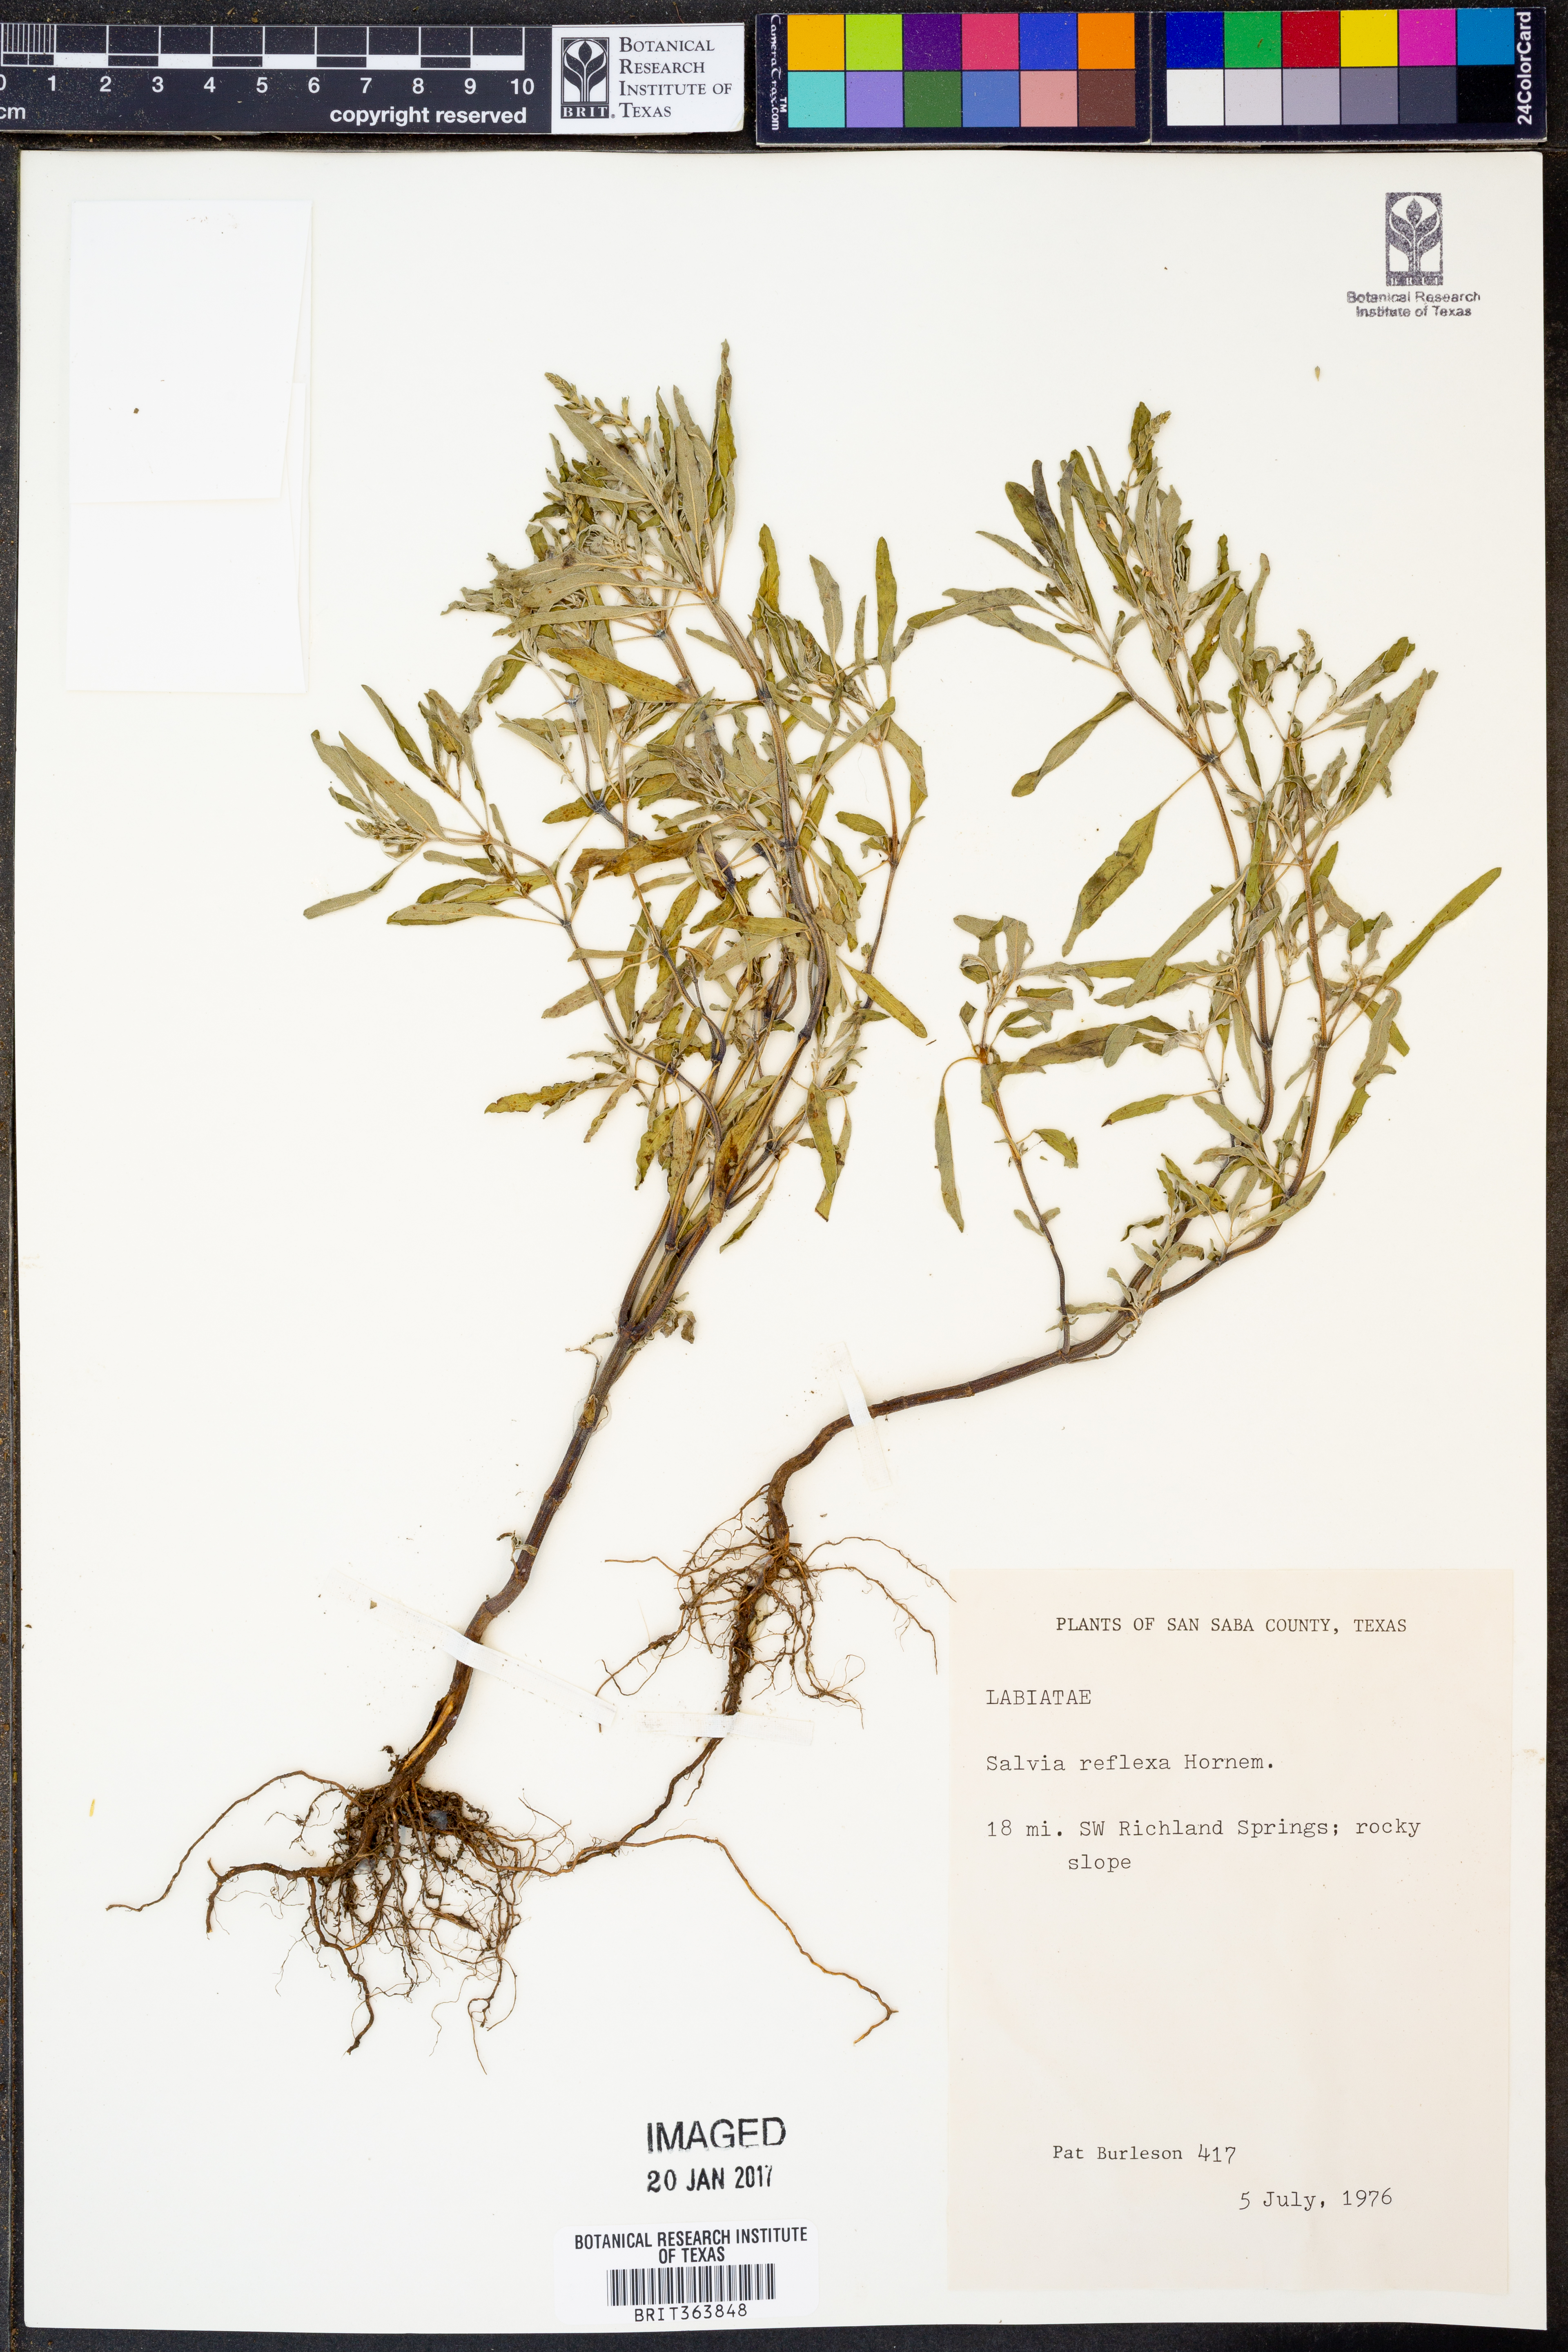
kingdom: Plantae
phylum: Tracheophyta
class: Magnoliopsida
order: Lamiales
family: Lamiaceae
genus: Salvia
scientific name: Salvia reflexa
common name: Mintweed
